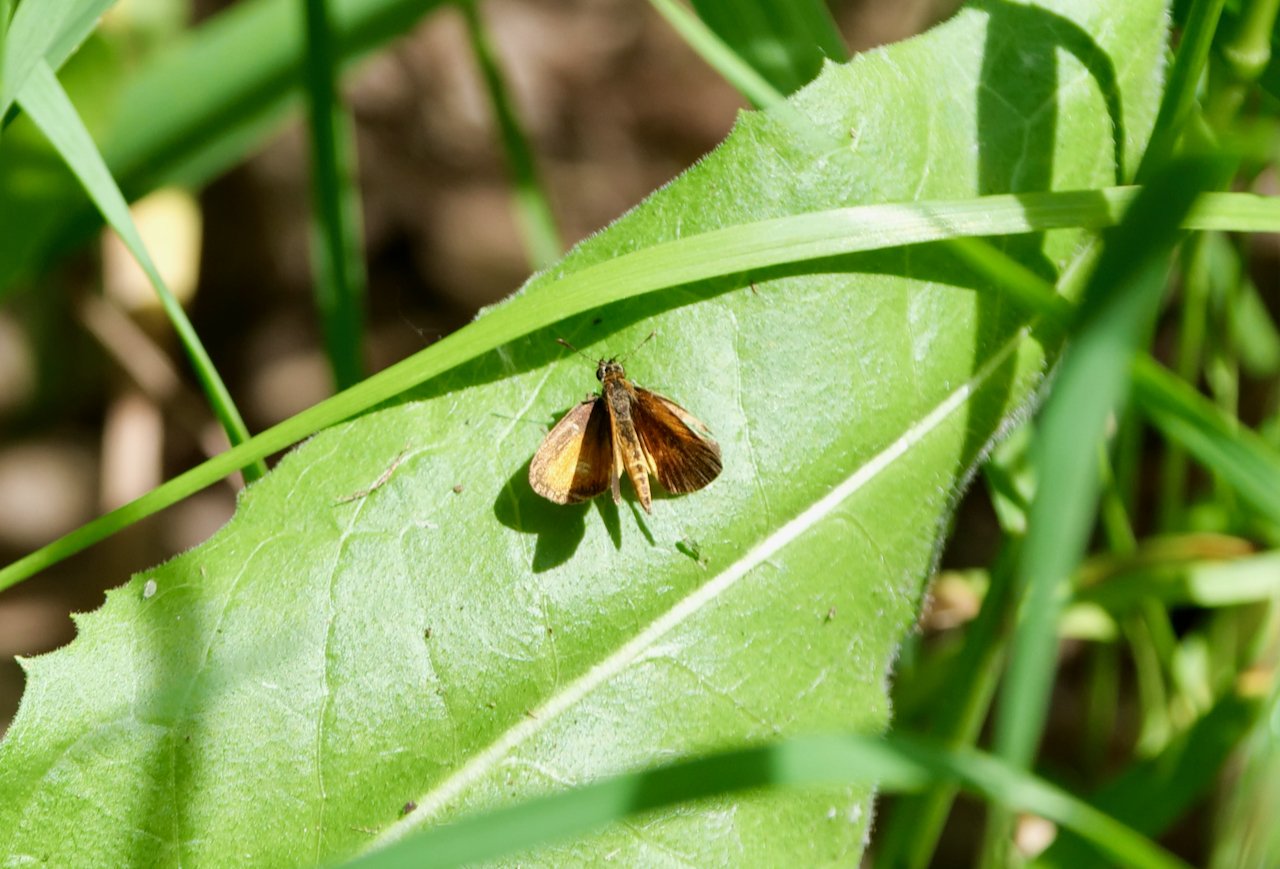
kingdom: Animalia
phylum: Arthropoda
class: Insecta
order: Lepidoptera
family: Hesperiidae
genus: Ancyloxypha
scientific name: Ancyloxypha numitor
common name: Least Skipper
